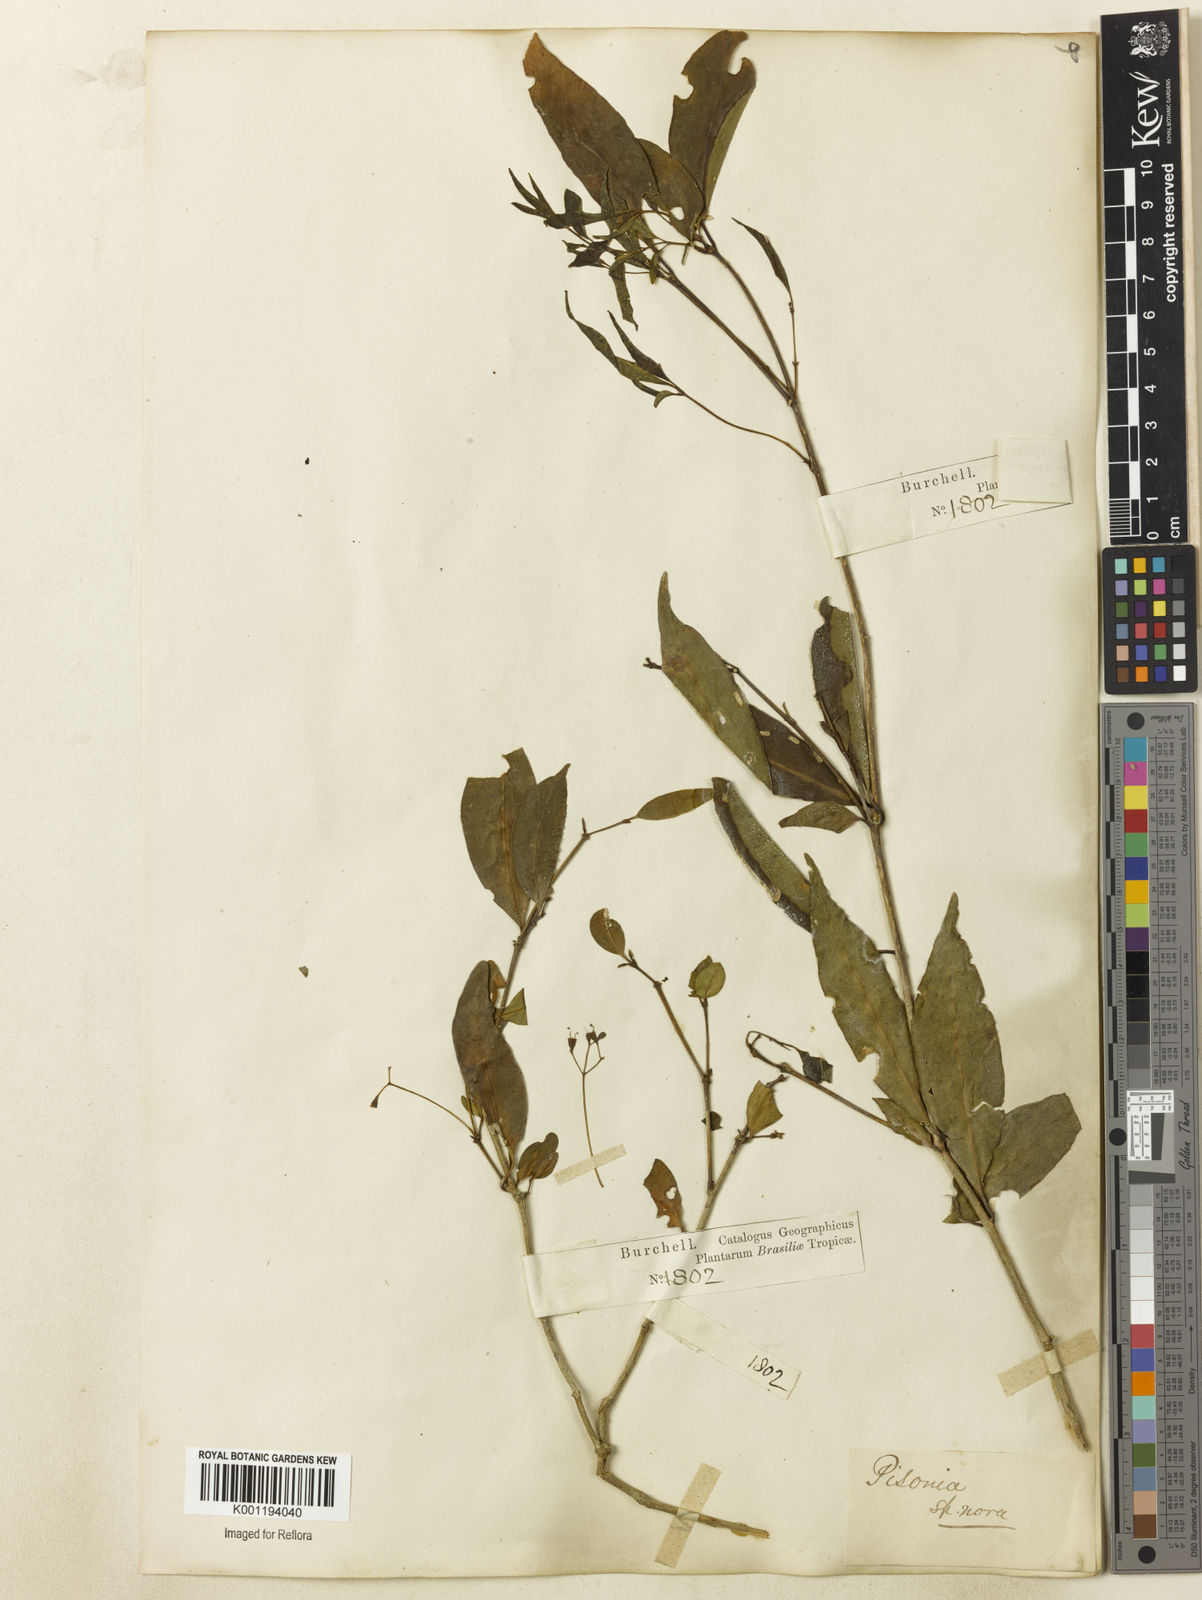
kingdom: Plantae
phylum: Tracheophyta
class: Magnoliopsida
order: Caryophyllales
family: Nyctaginaceae
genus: Guapira
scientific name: Guapira
